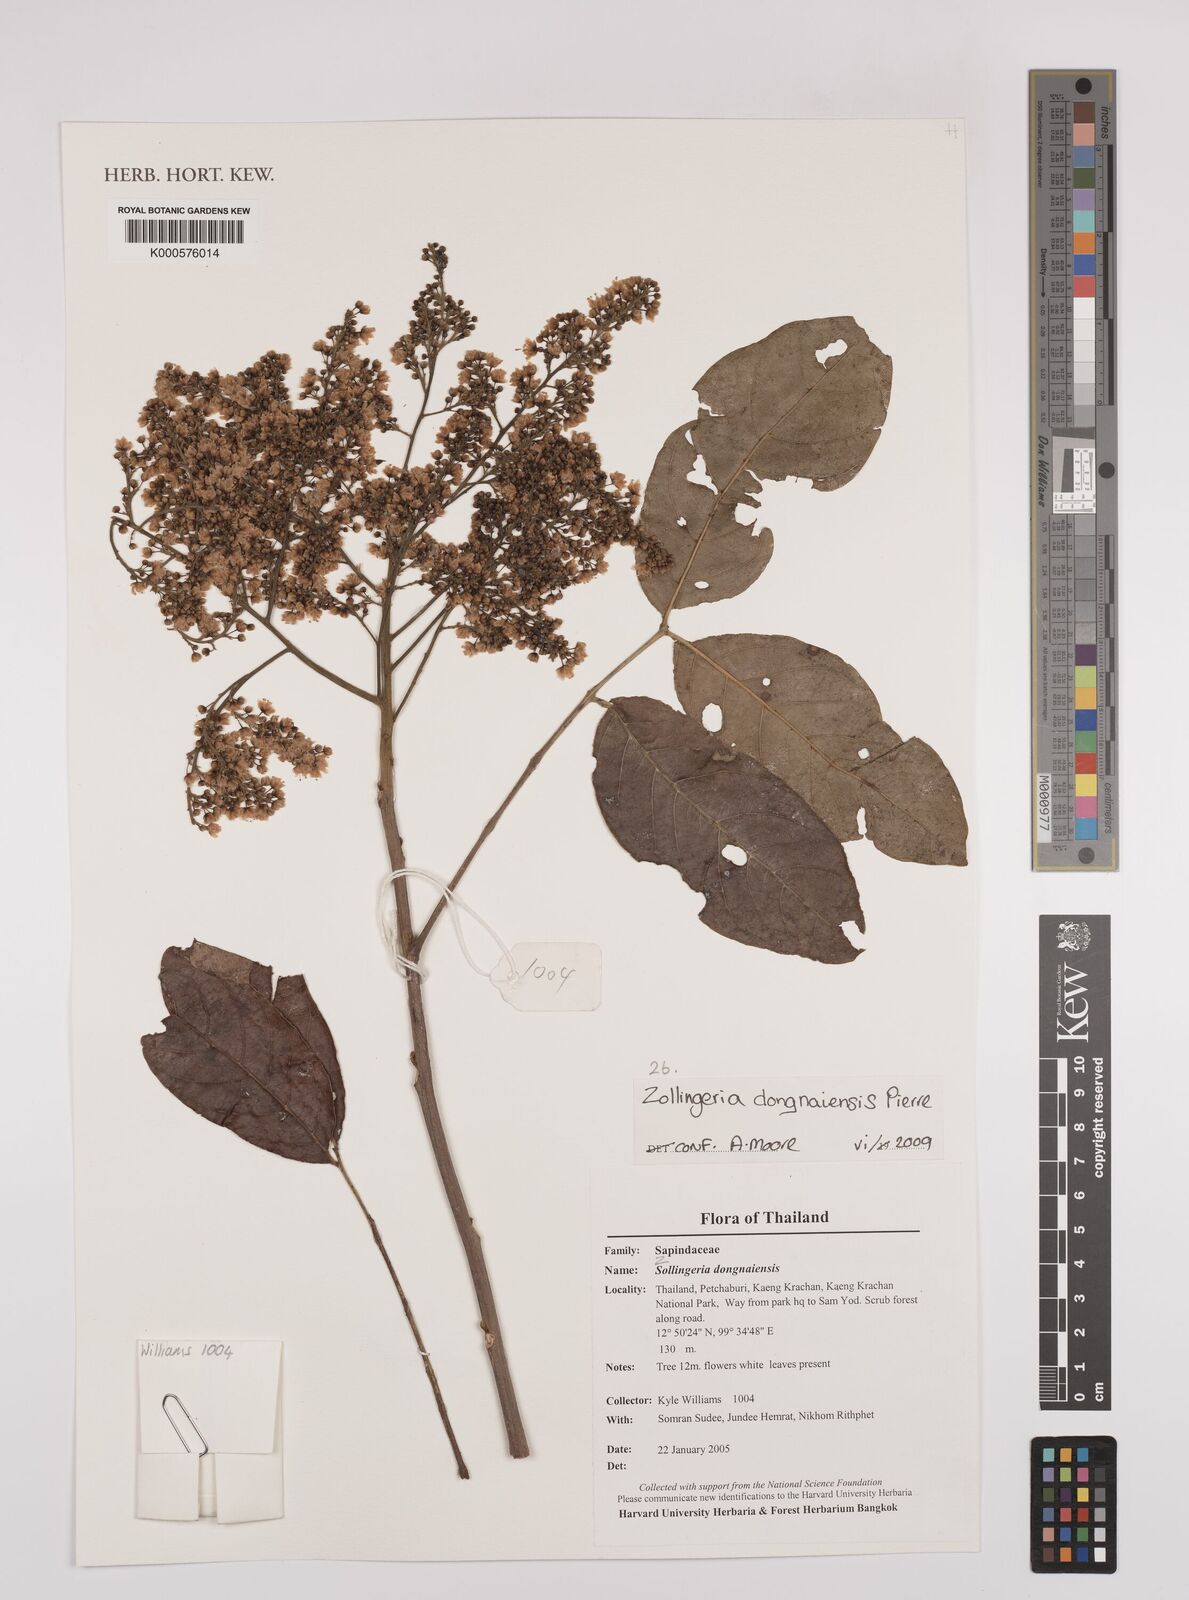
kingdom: Plantae
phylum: Tracheophyta
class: Magnoliopsida
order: Sapindales
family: Sapindaceae
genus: Zollingeria
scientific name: Zollingeria dongnaiensis
